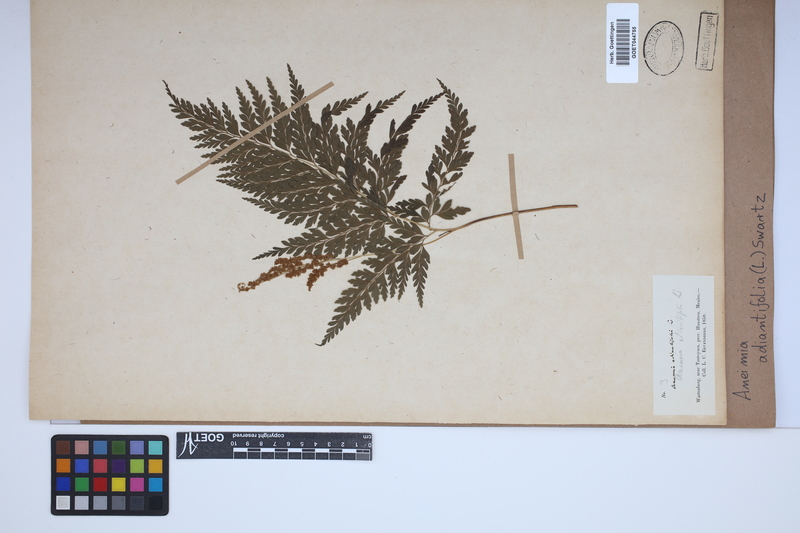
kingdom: Plantae
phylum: Tracheophyta
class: Polypodiopsida
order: Schizaeales
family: Anemiaceae
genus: Anemia
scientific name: Anemia adiantifolia
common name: Pine fern
